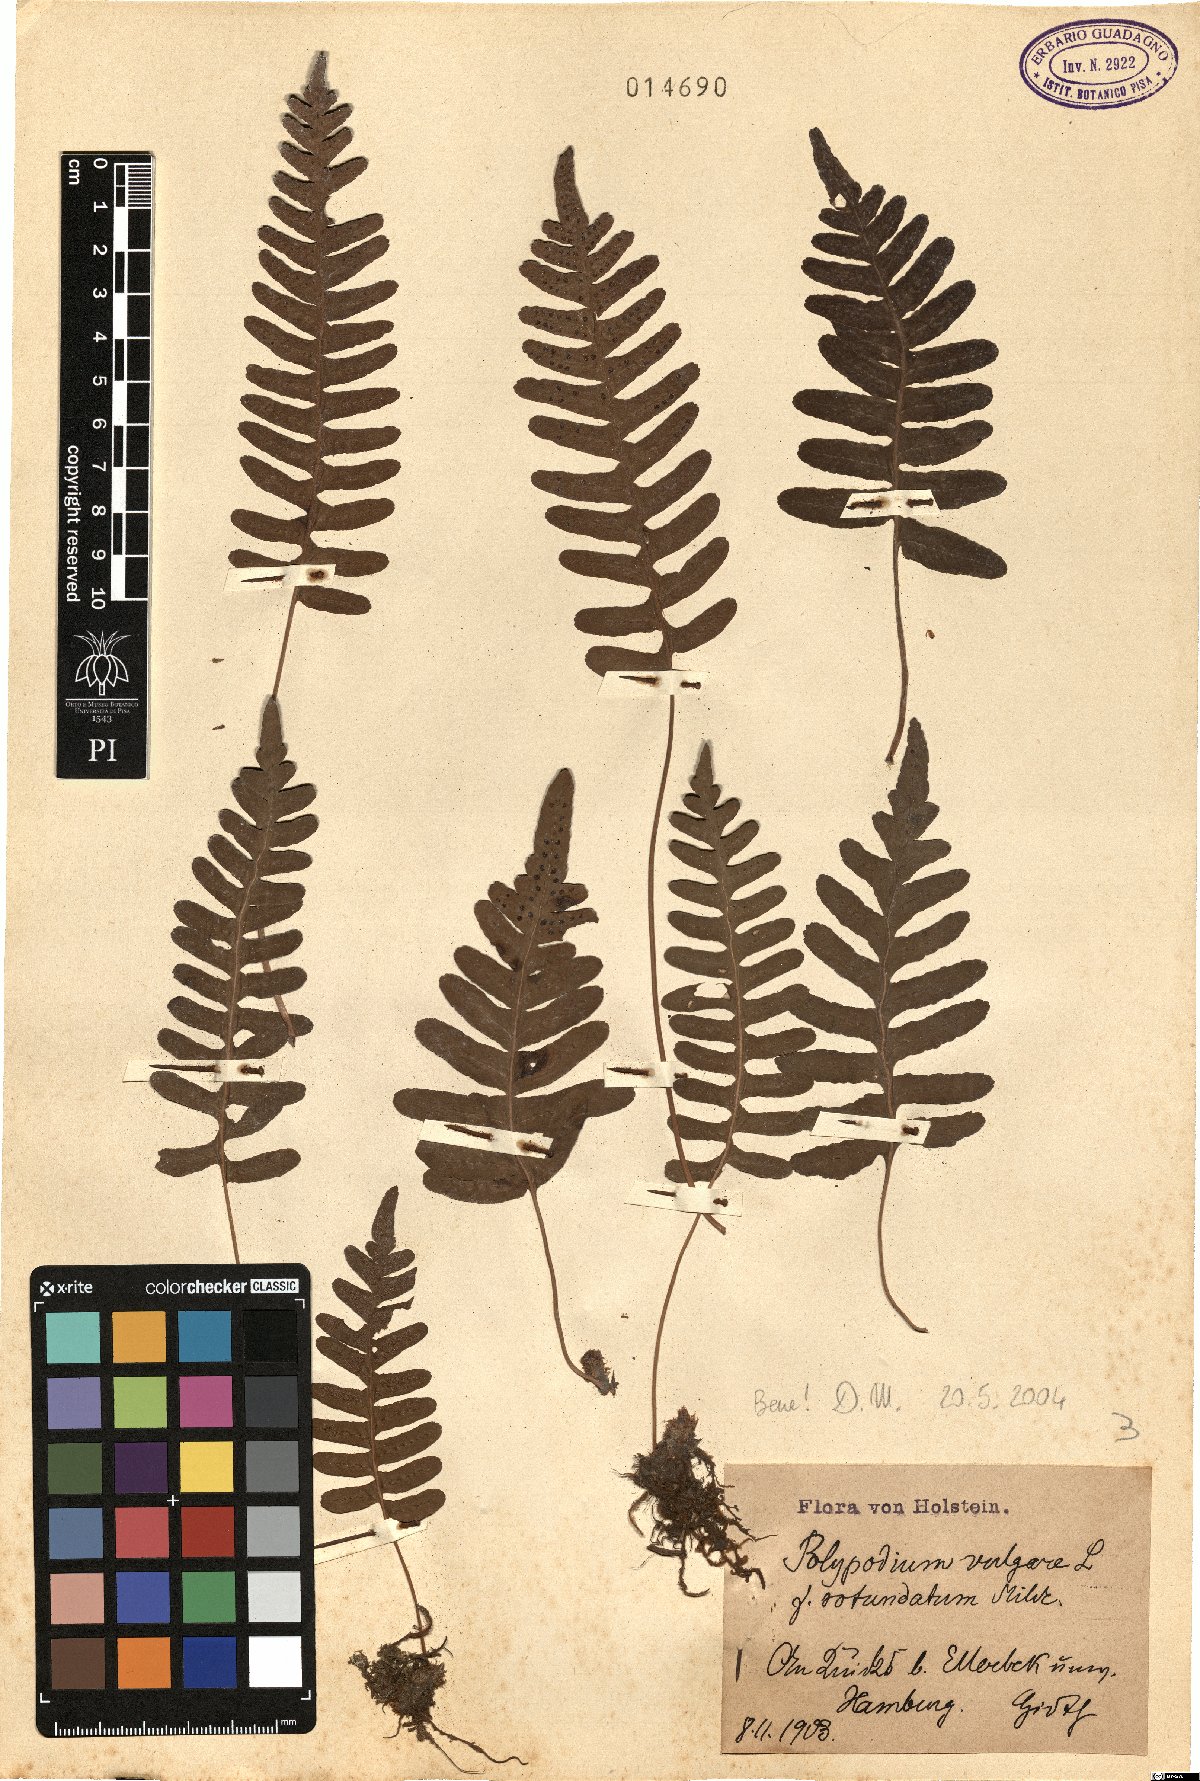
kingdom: Plantae
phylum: Tracheophyta
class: Polypodiopsida
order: Polypodiales
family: Polypodiaceae
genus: Polypodium
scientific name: Polypodium vulgare
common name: Common polypody
